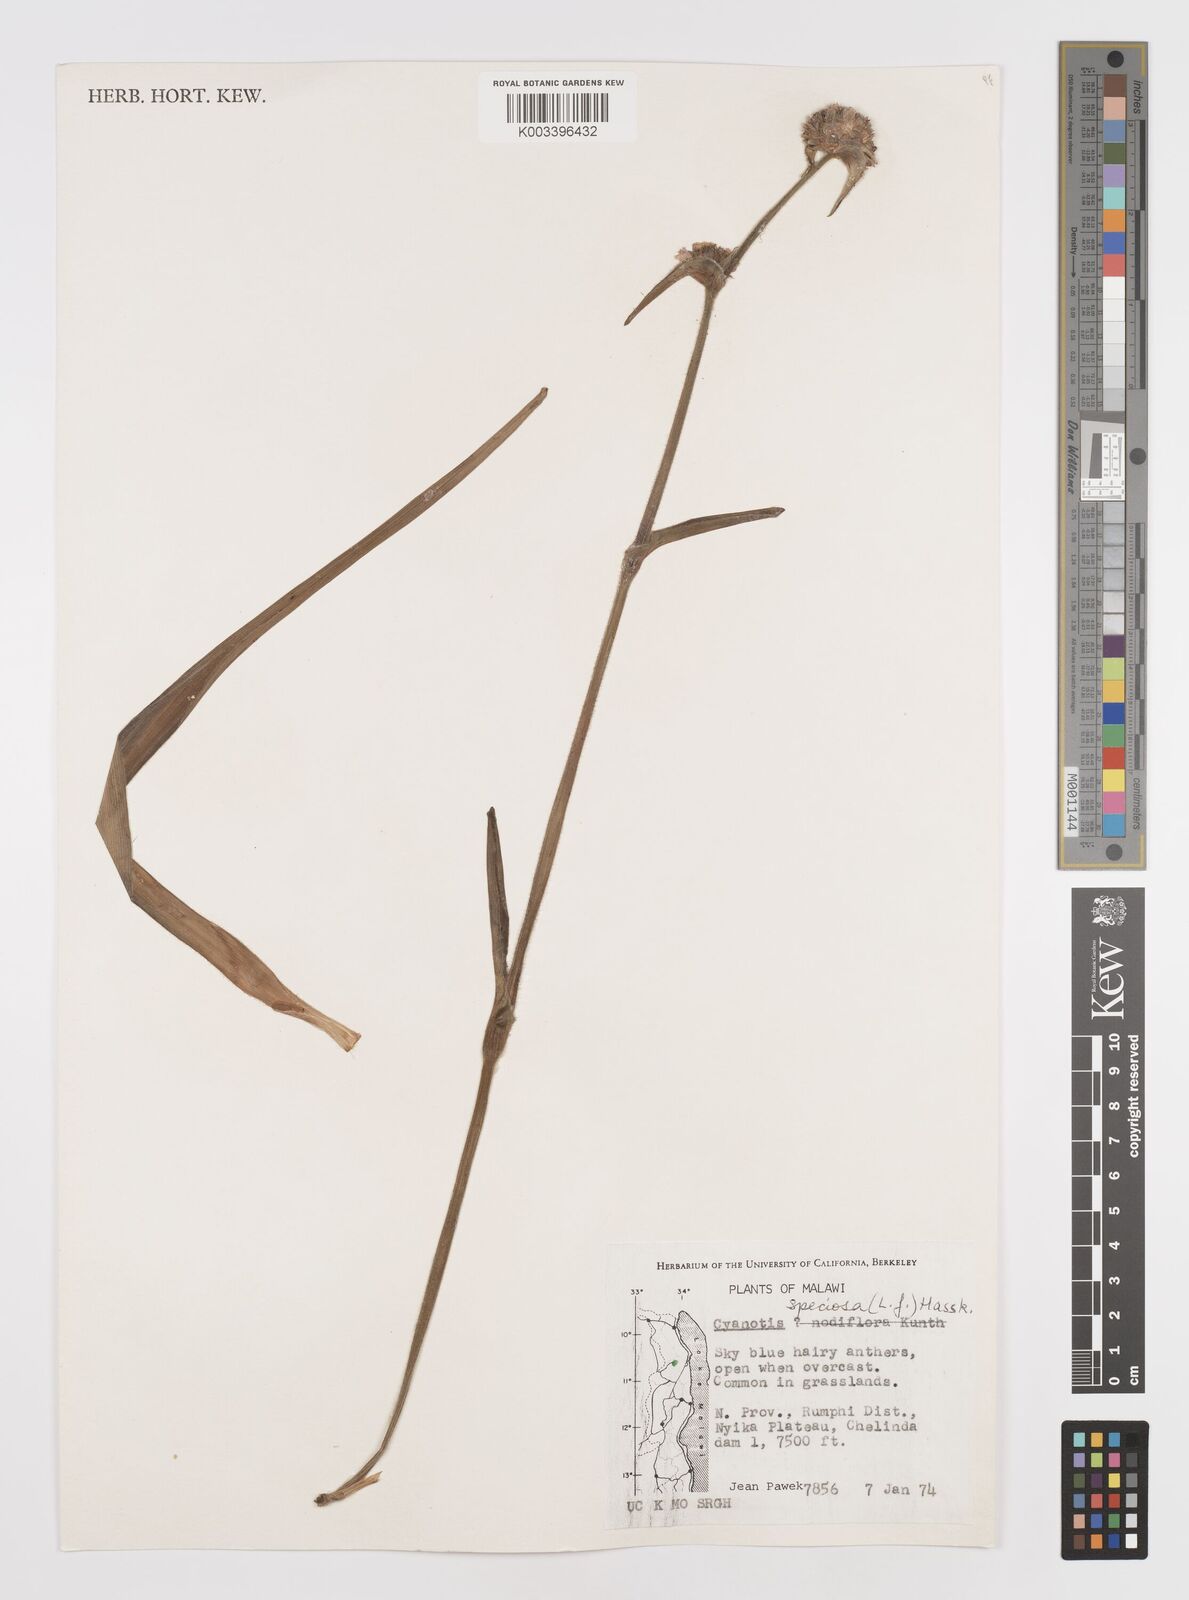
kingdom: Plantae
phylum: Tracheophyta
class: Liliopsida
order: Commelinales
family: Commelinaceae
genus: Cyanotis
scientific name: Cyanotis speciosa
